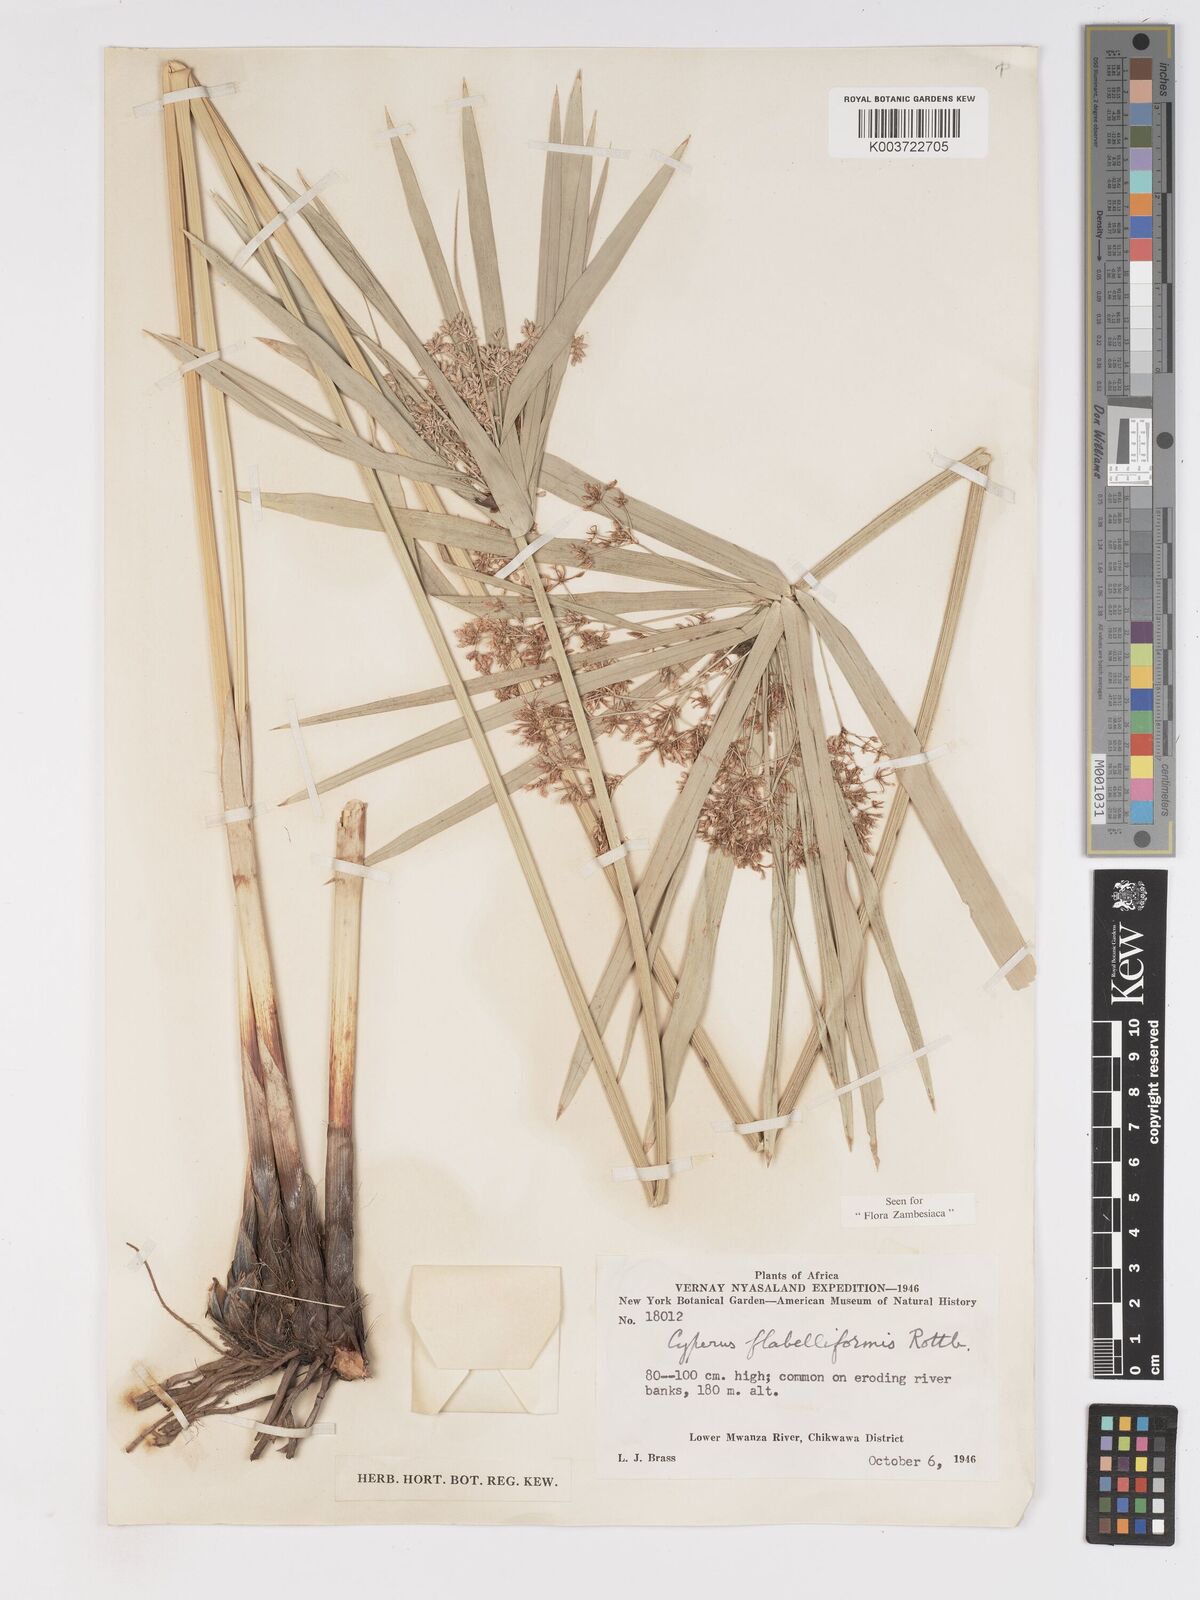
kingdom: Plantae
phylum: Tracheophyta
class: Liliopsida
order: Poales
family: Cyperaceae
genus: Cyperus
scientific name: Cyperus alternifolius
